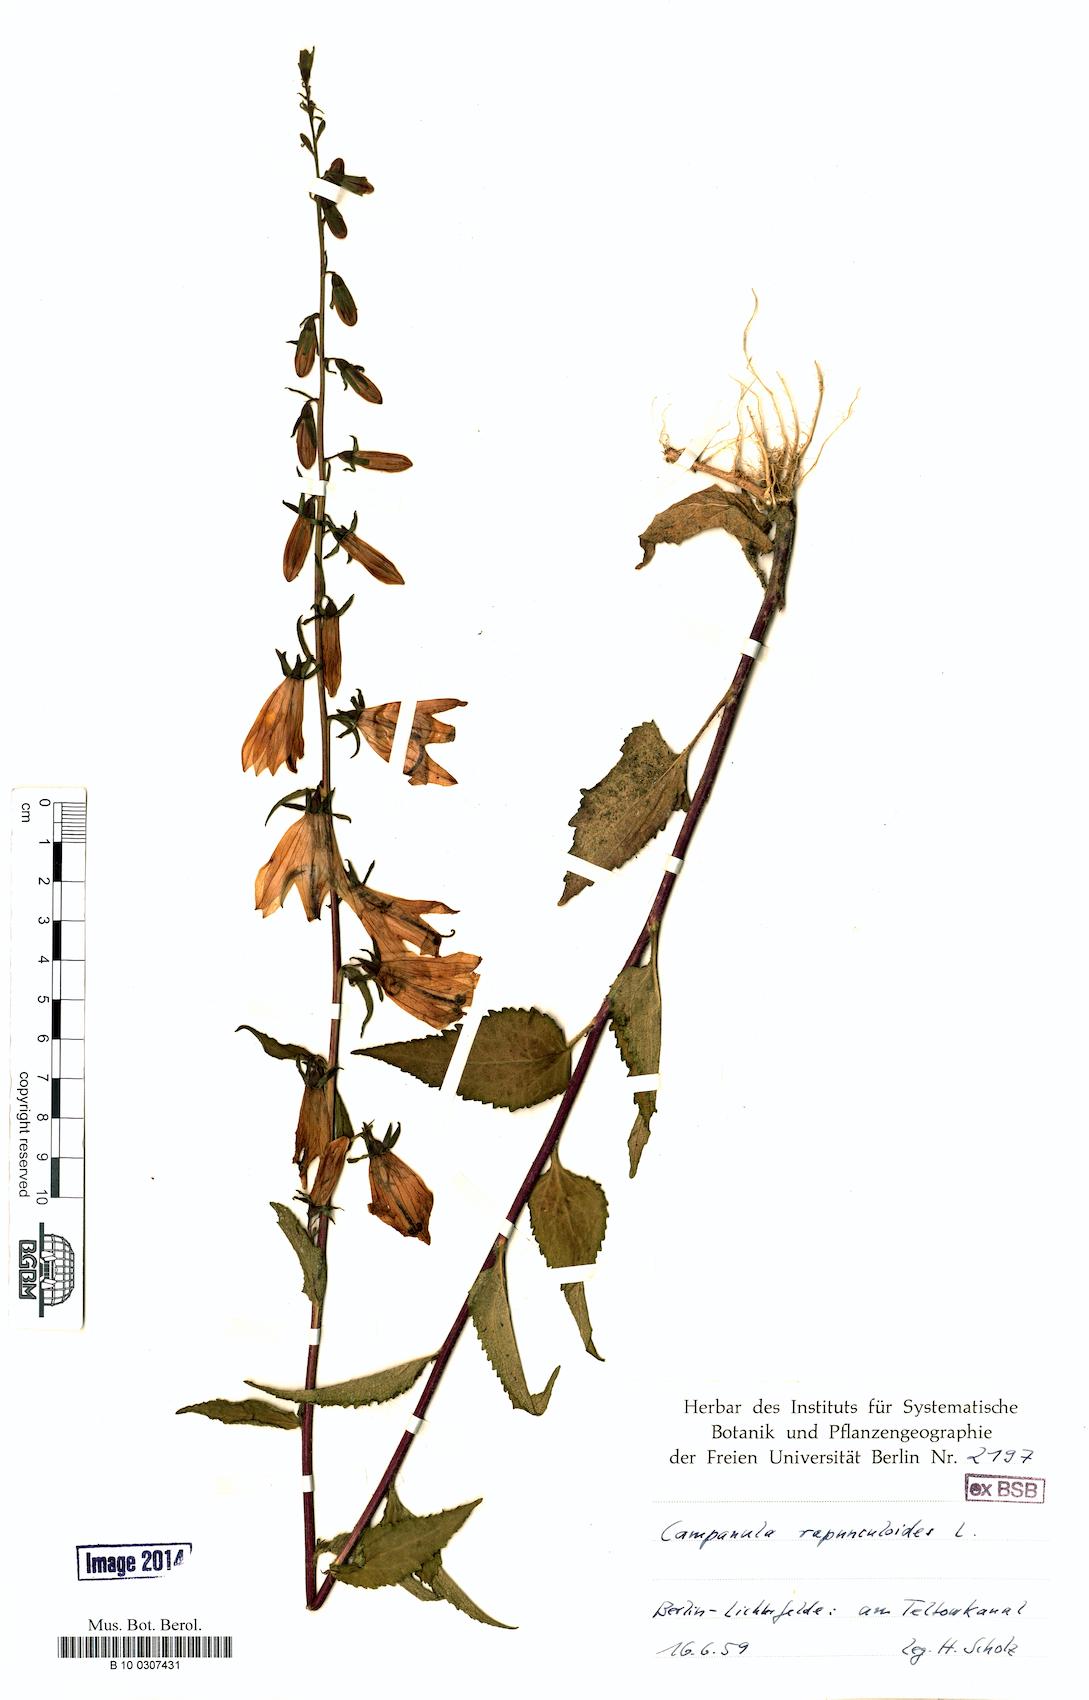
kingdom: Plantae
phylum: Tracheophyta
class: Magnoliopsida
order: Asterales
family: Campanulaceae
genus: Campanula
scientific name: Campanula rapunculoides
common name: Creeping bellflower
